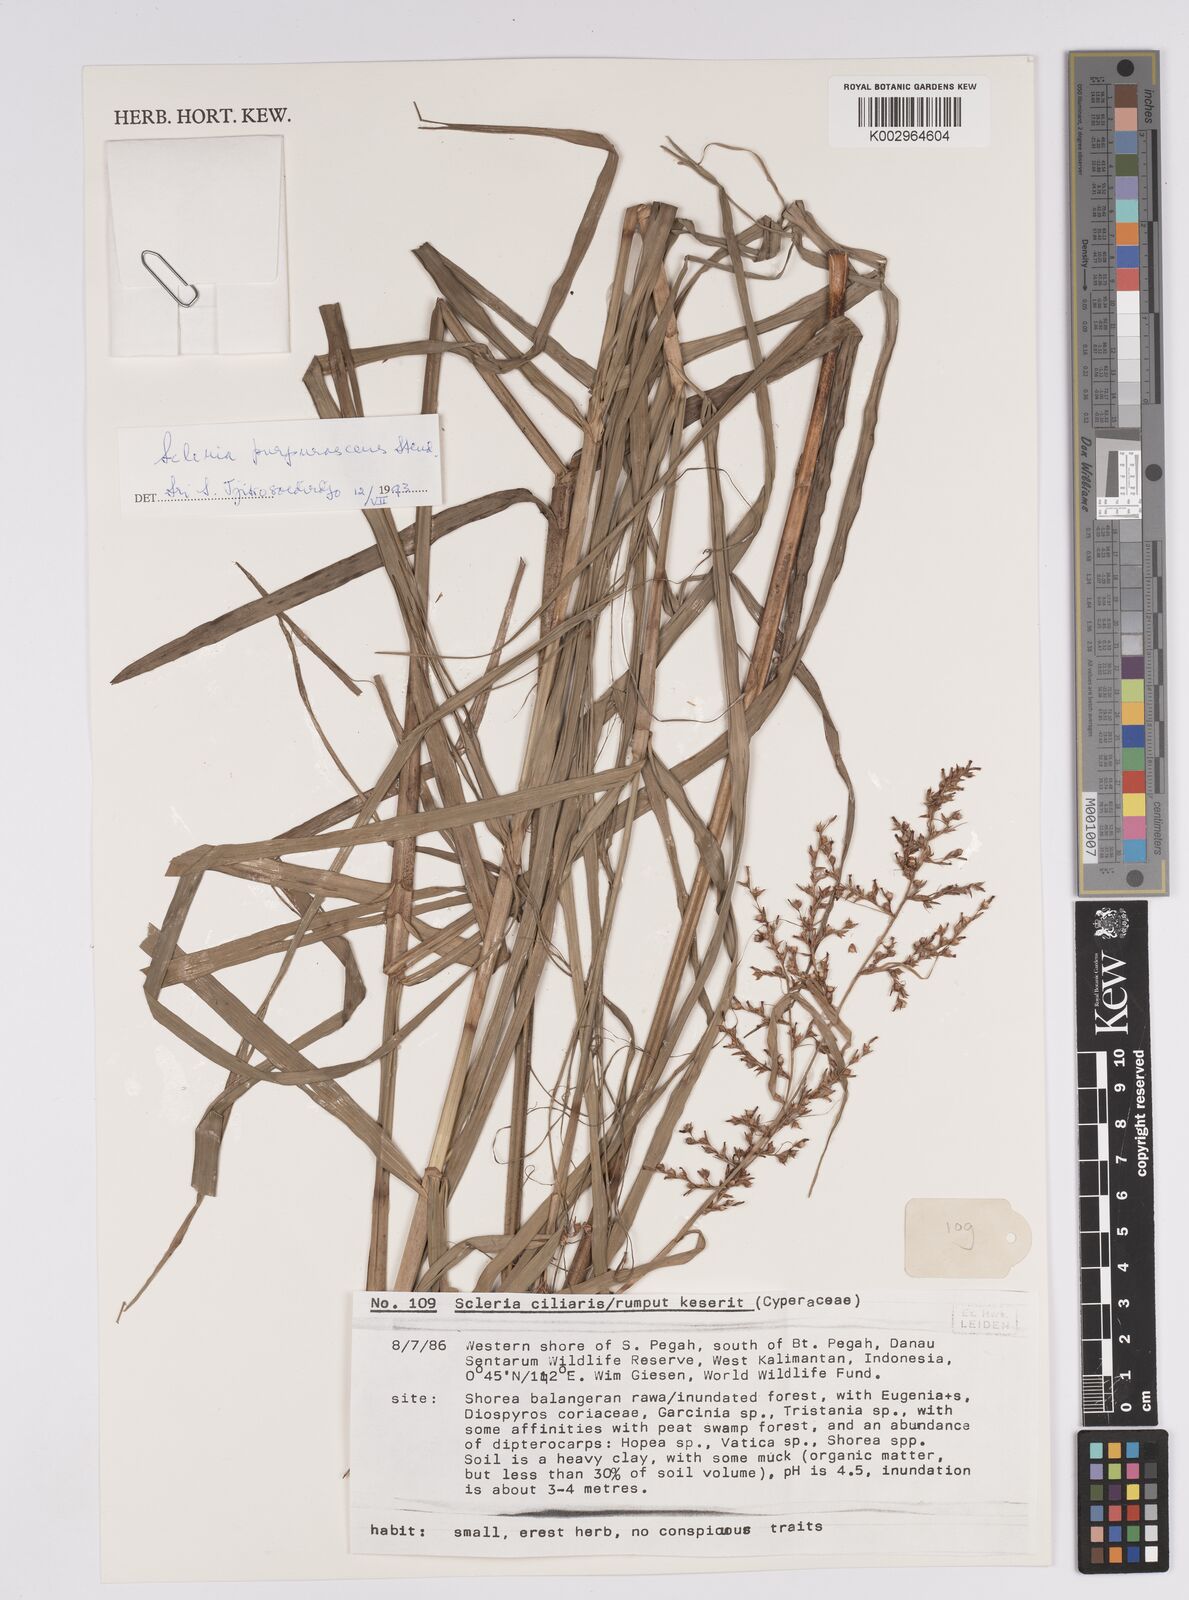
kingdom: Plantae
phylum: Tracheophyta
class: Liliopsida
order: Poales
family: Cyperaceae
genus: Scleria
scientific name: Scleria purpurascens
